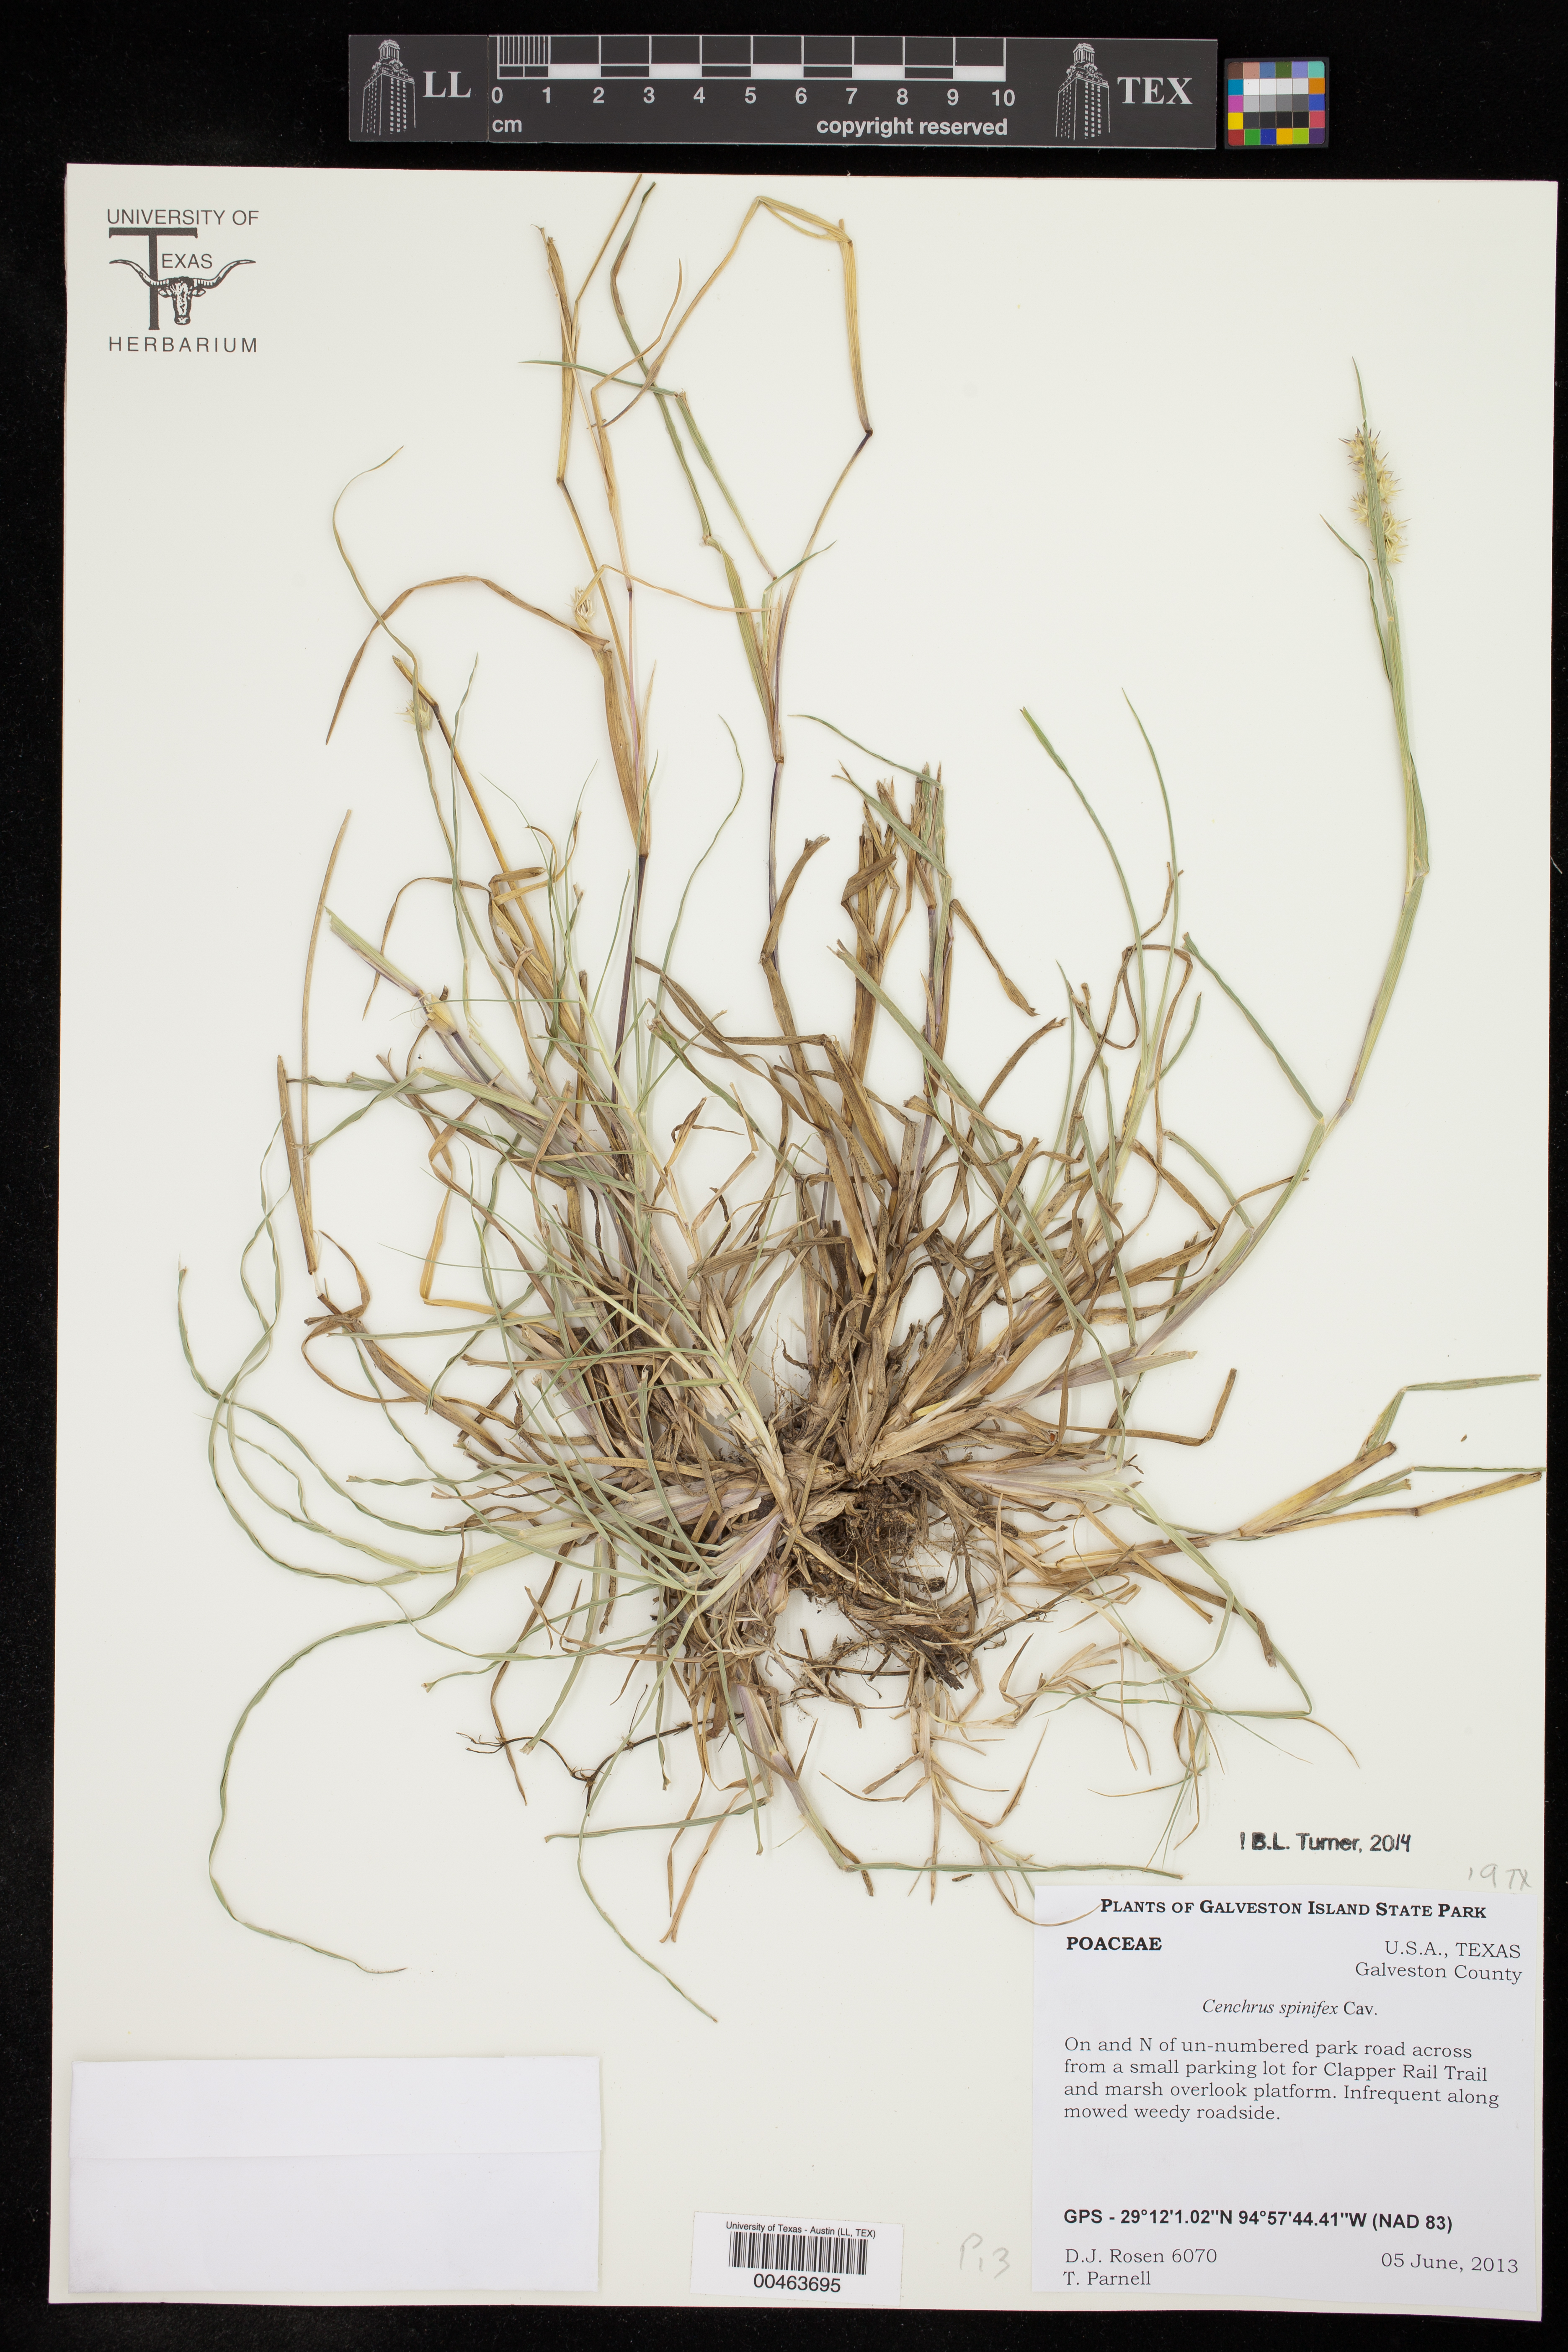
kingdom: Plantae
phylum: Tracheophyta
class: Liliopsida
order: Poales
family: Poaceae
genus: Cenchrus
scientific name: Cenchrus spinifex
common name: Coast sandbur
